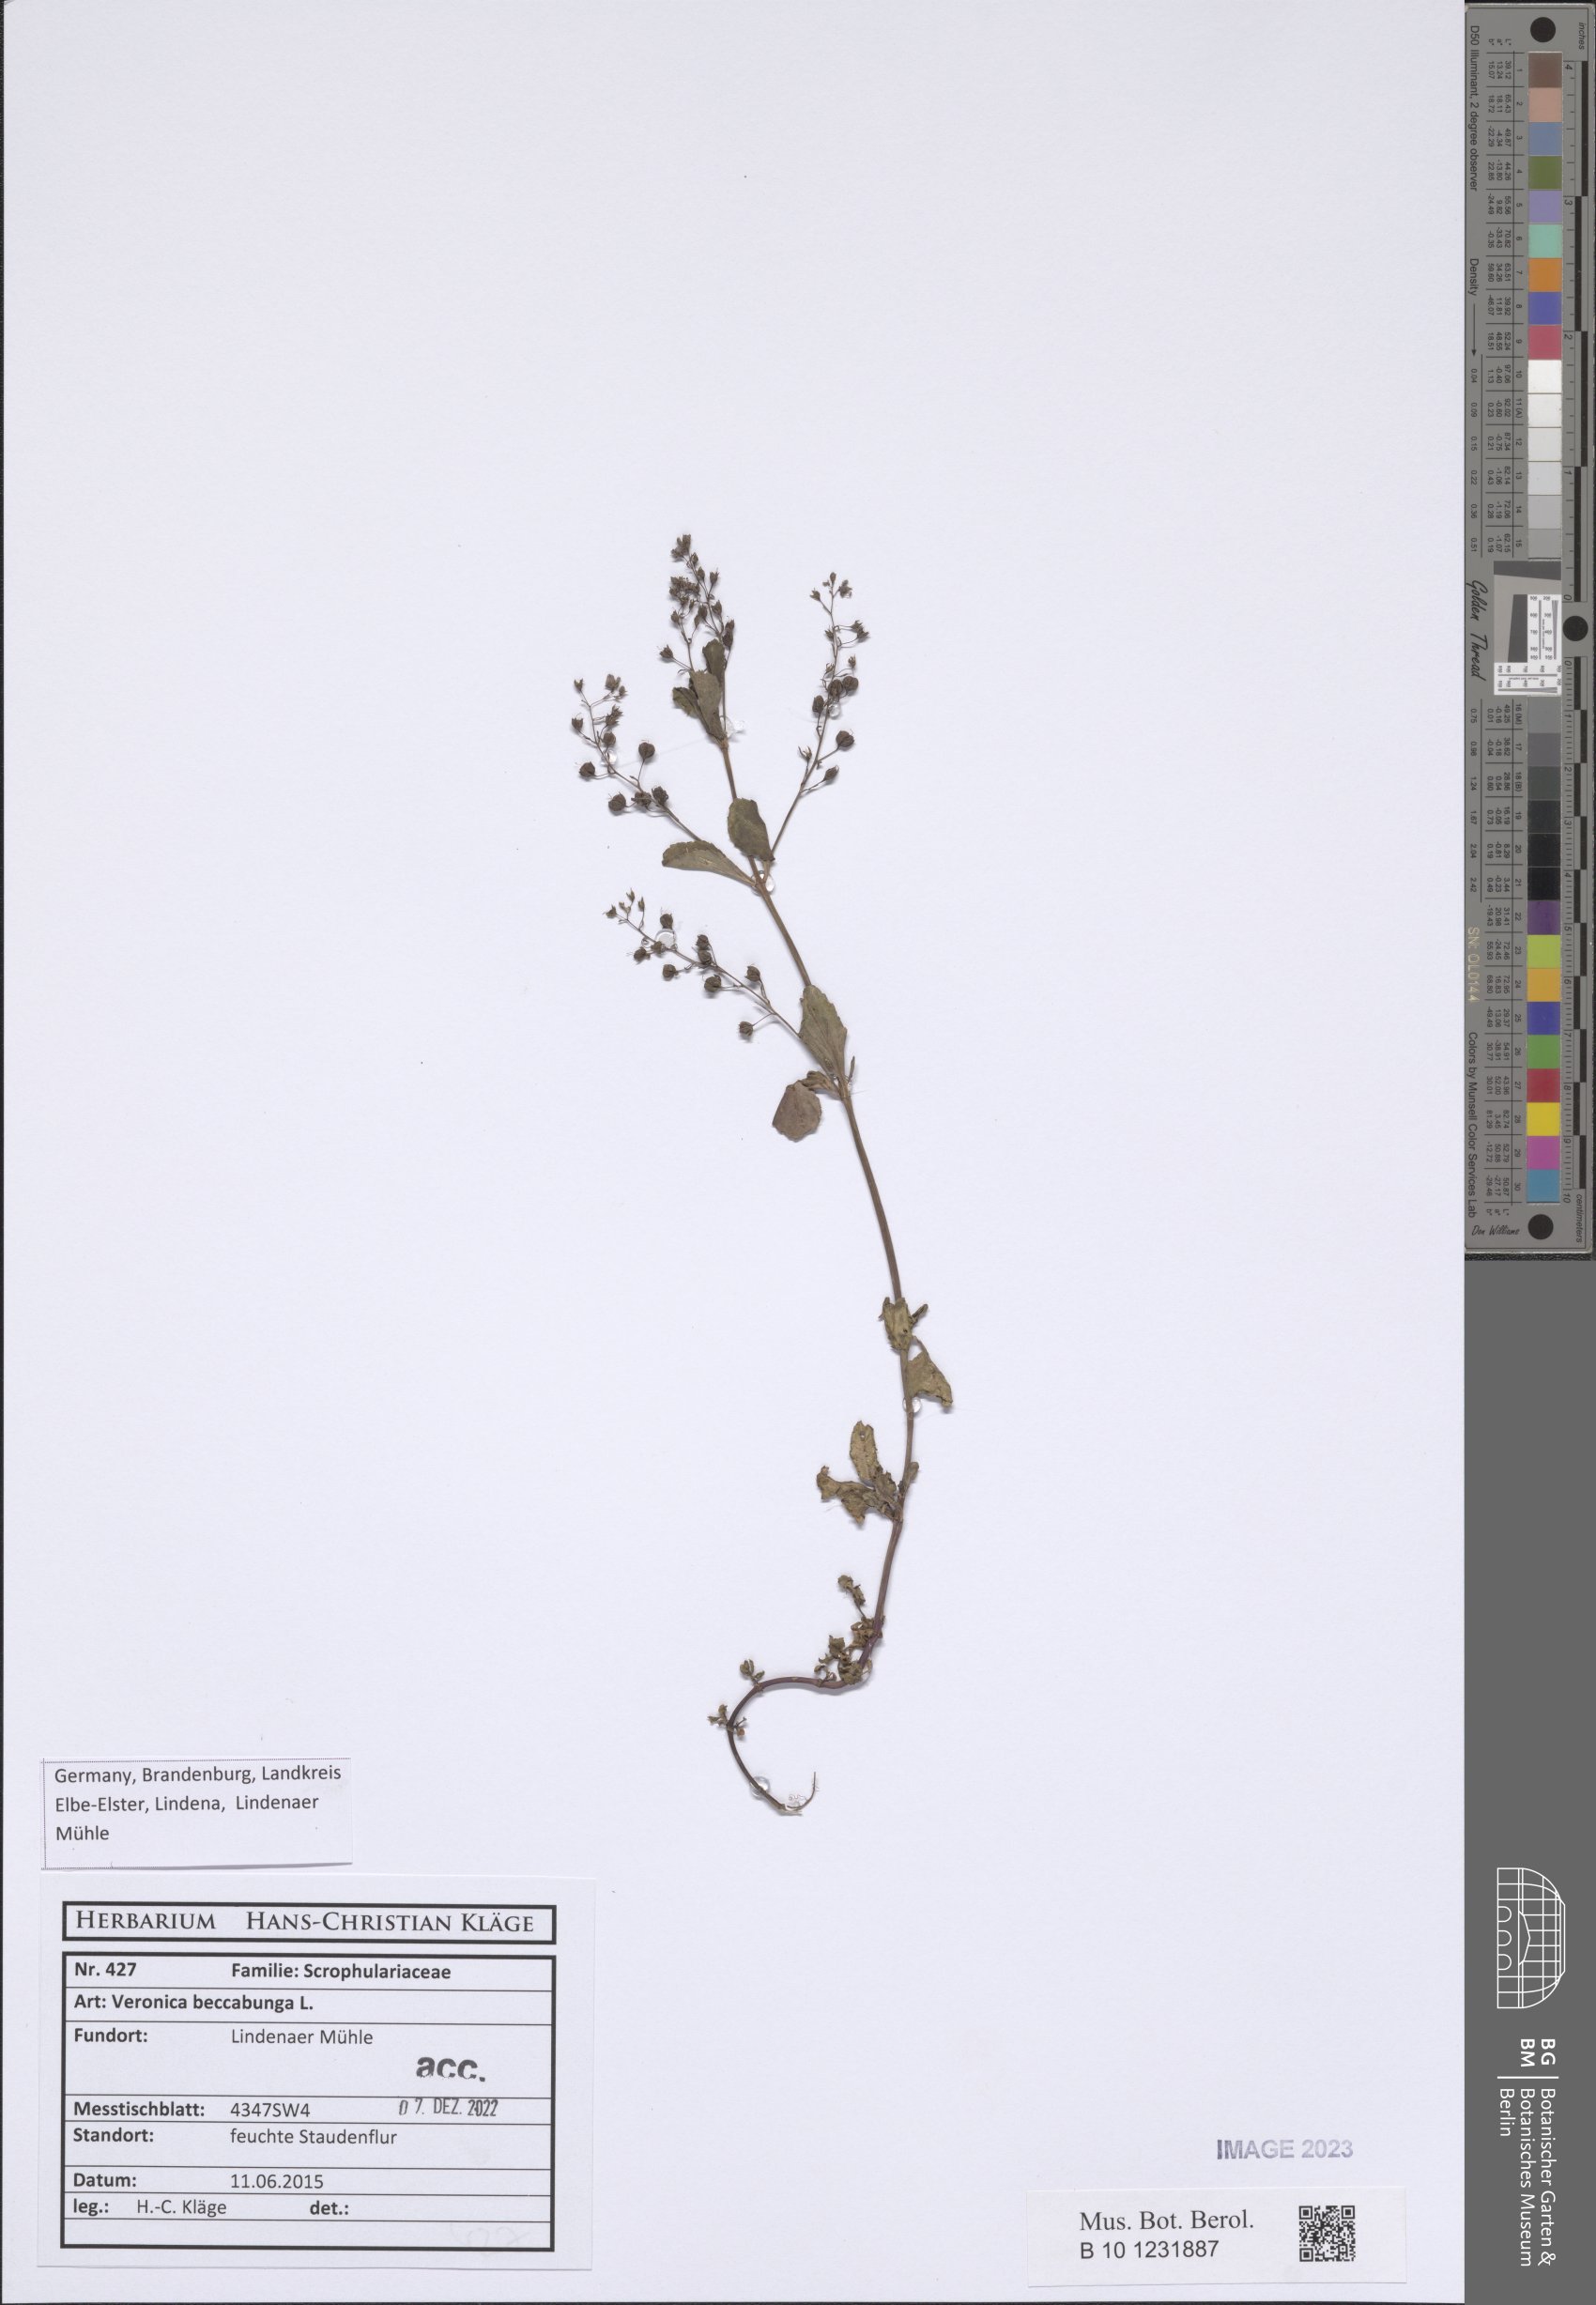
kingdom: Plantae
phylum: Tracheophyta
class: Magnoliopsida
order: Lamiales
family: Plantaginaceae
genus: Veronica
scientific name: Veronica beccabunga
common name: Brooklime
